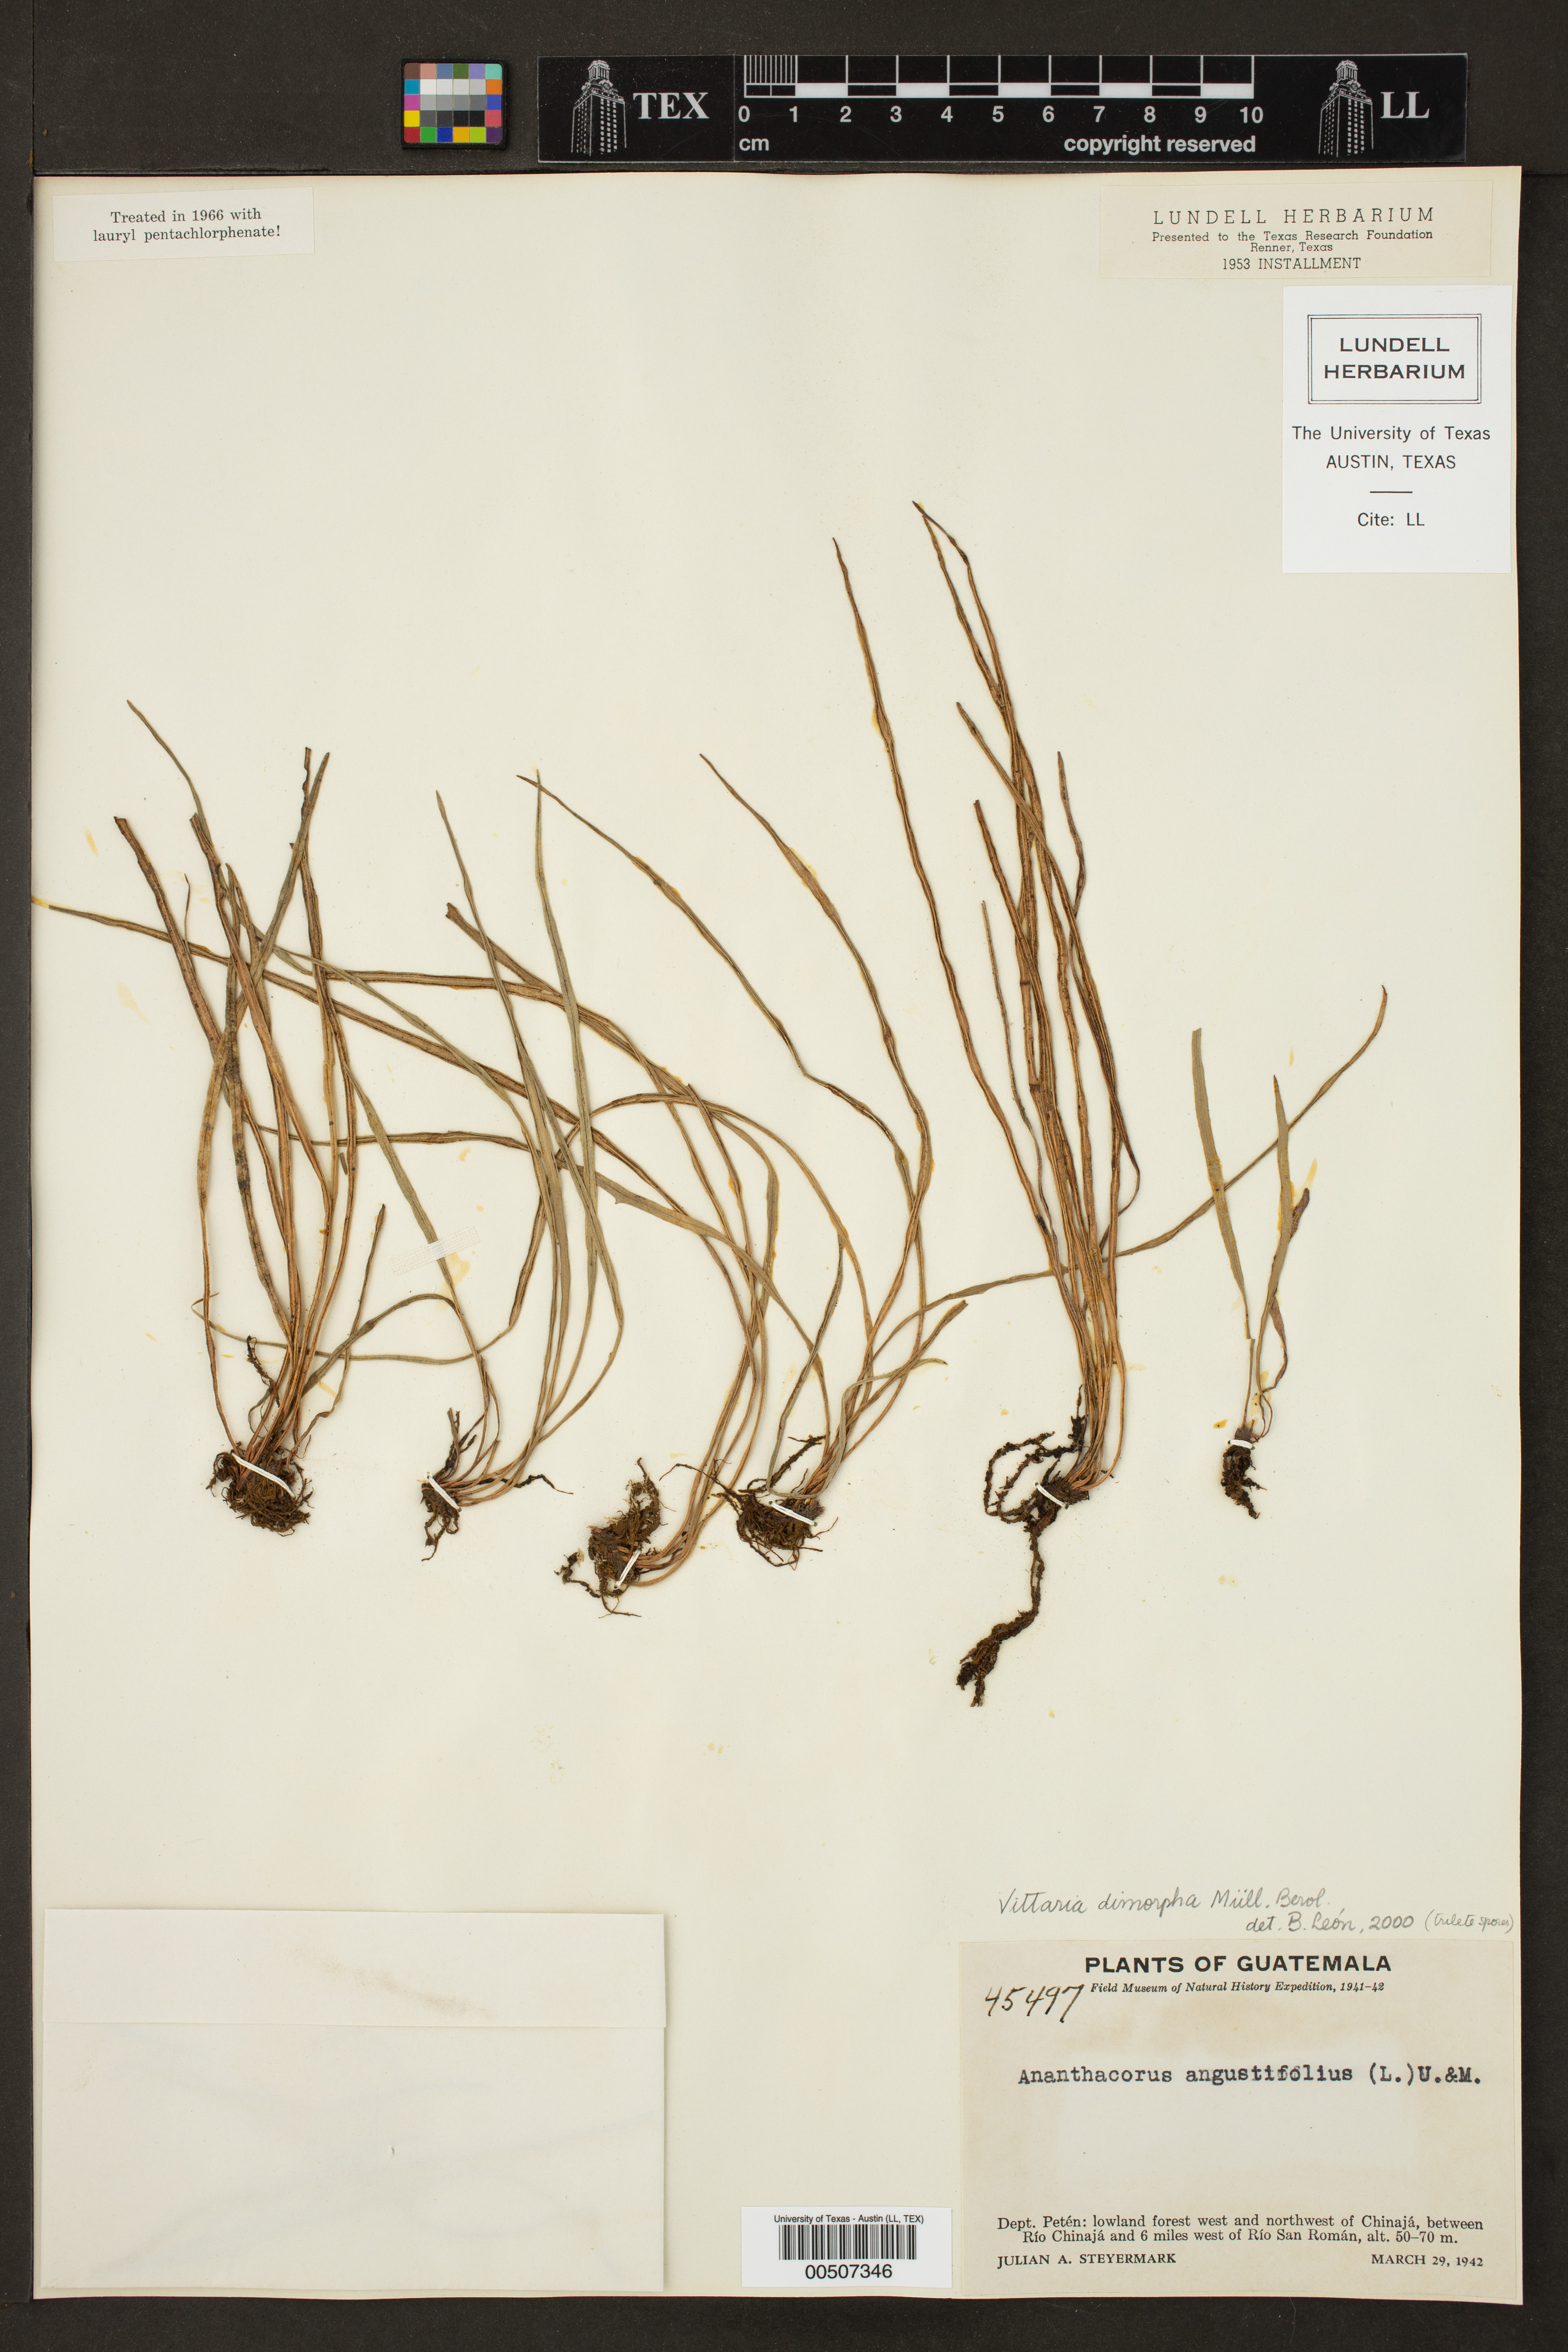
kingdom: Plantae
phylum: Tracheophyta
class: Polypodiopsida
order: Polypodiales
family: Pteridaceae
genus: Vittaria
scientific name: Vittaria graminifolia
